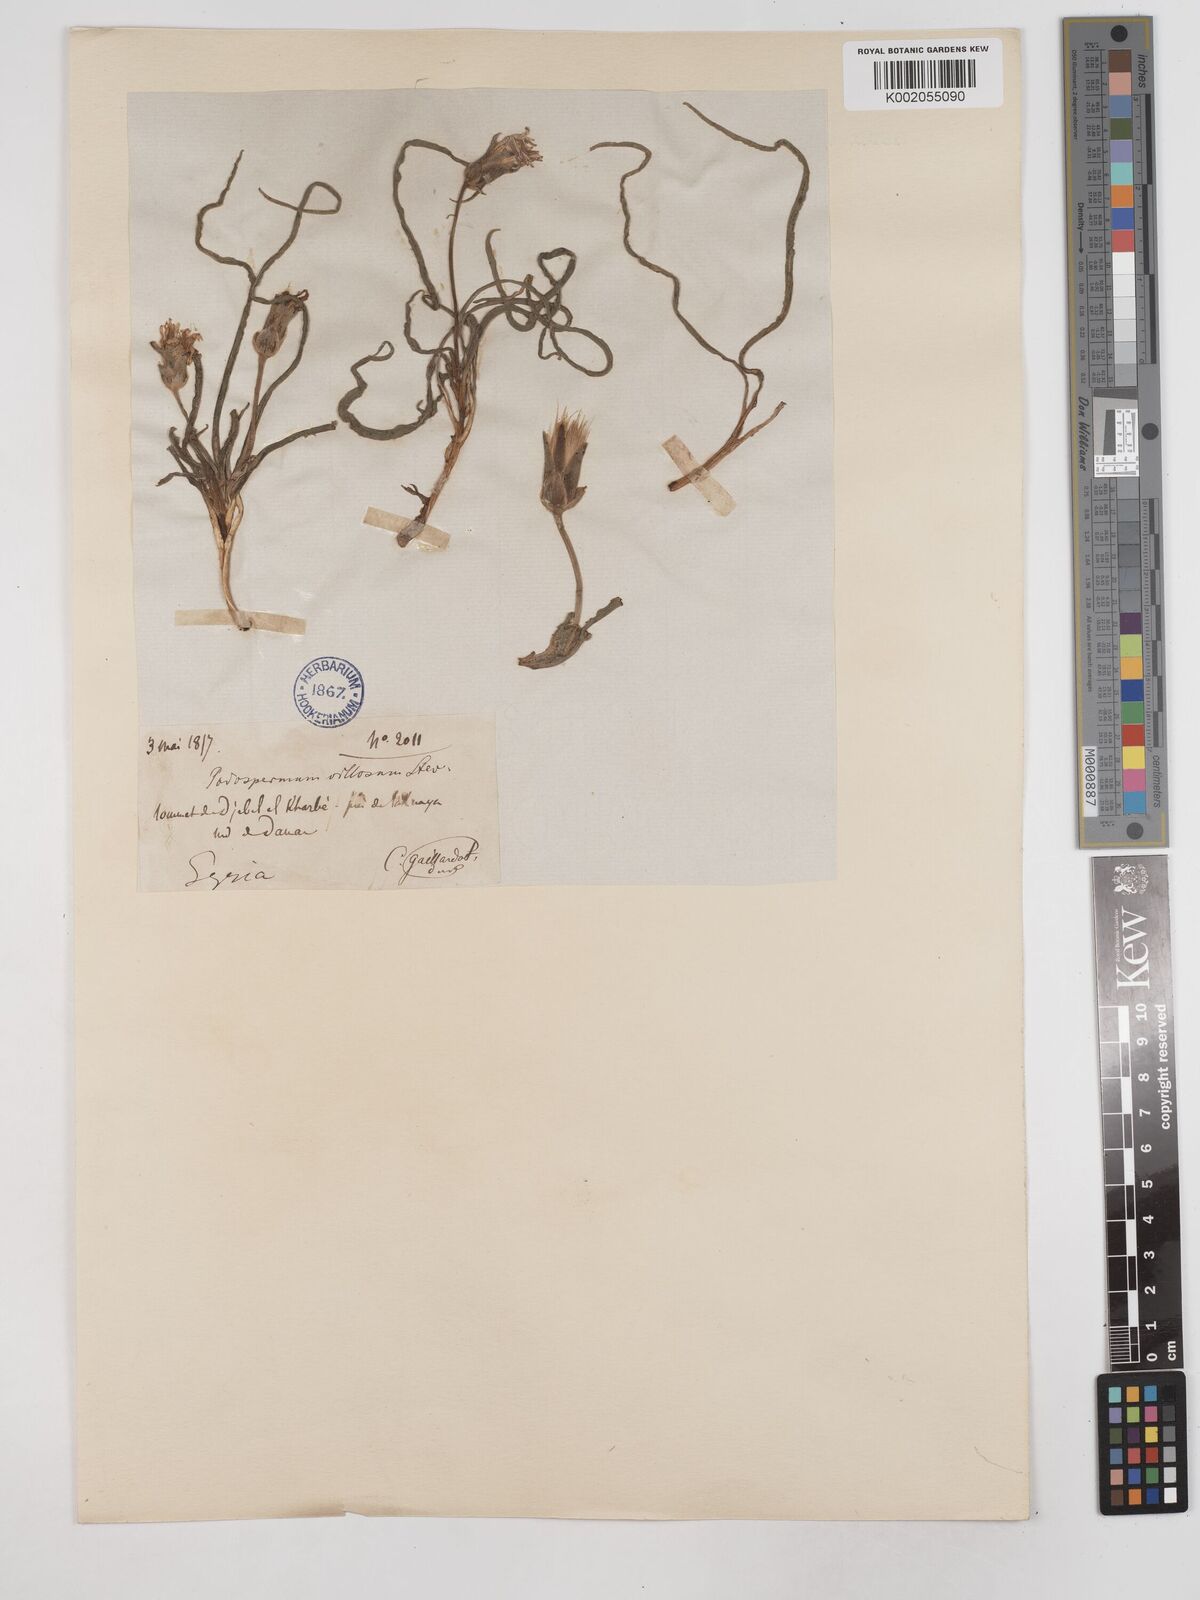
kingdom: Plantae
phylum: Tracheophyta
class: Magnoliopsida
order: Asterales
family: Asteraceae
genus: Candollea
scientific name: Candollea mollis
